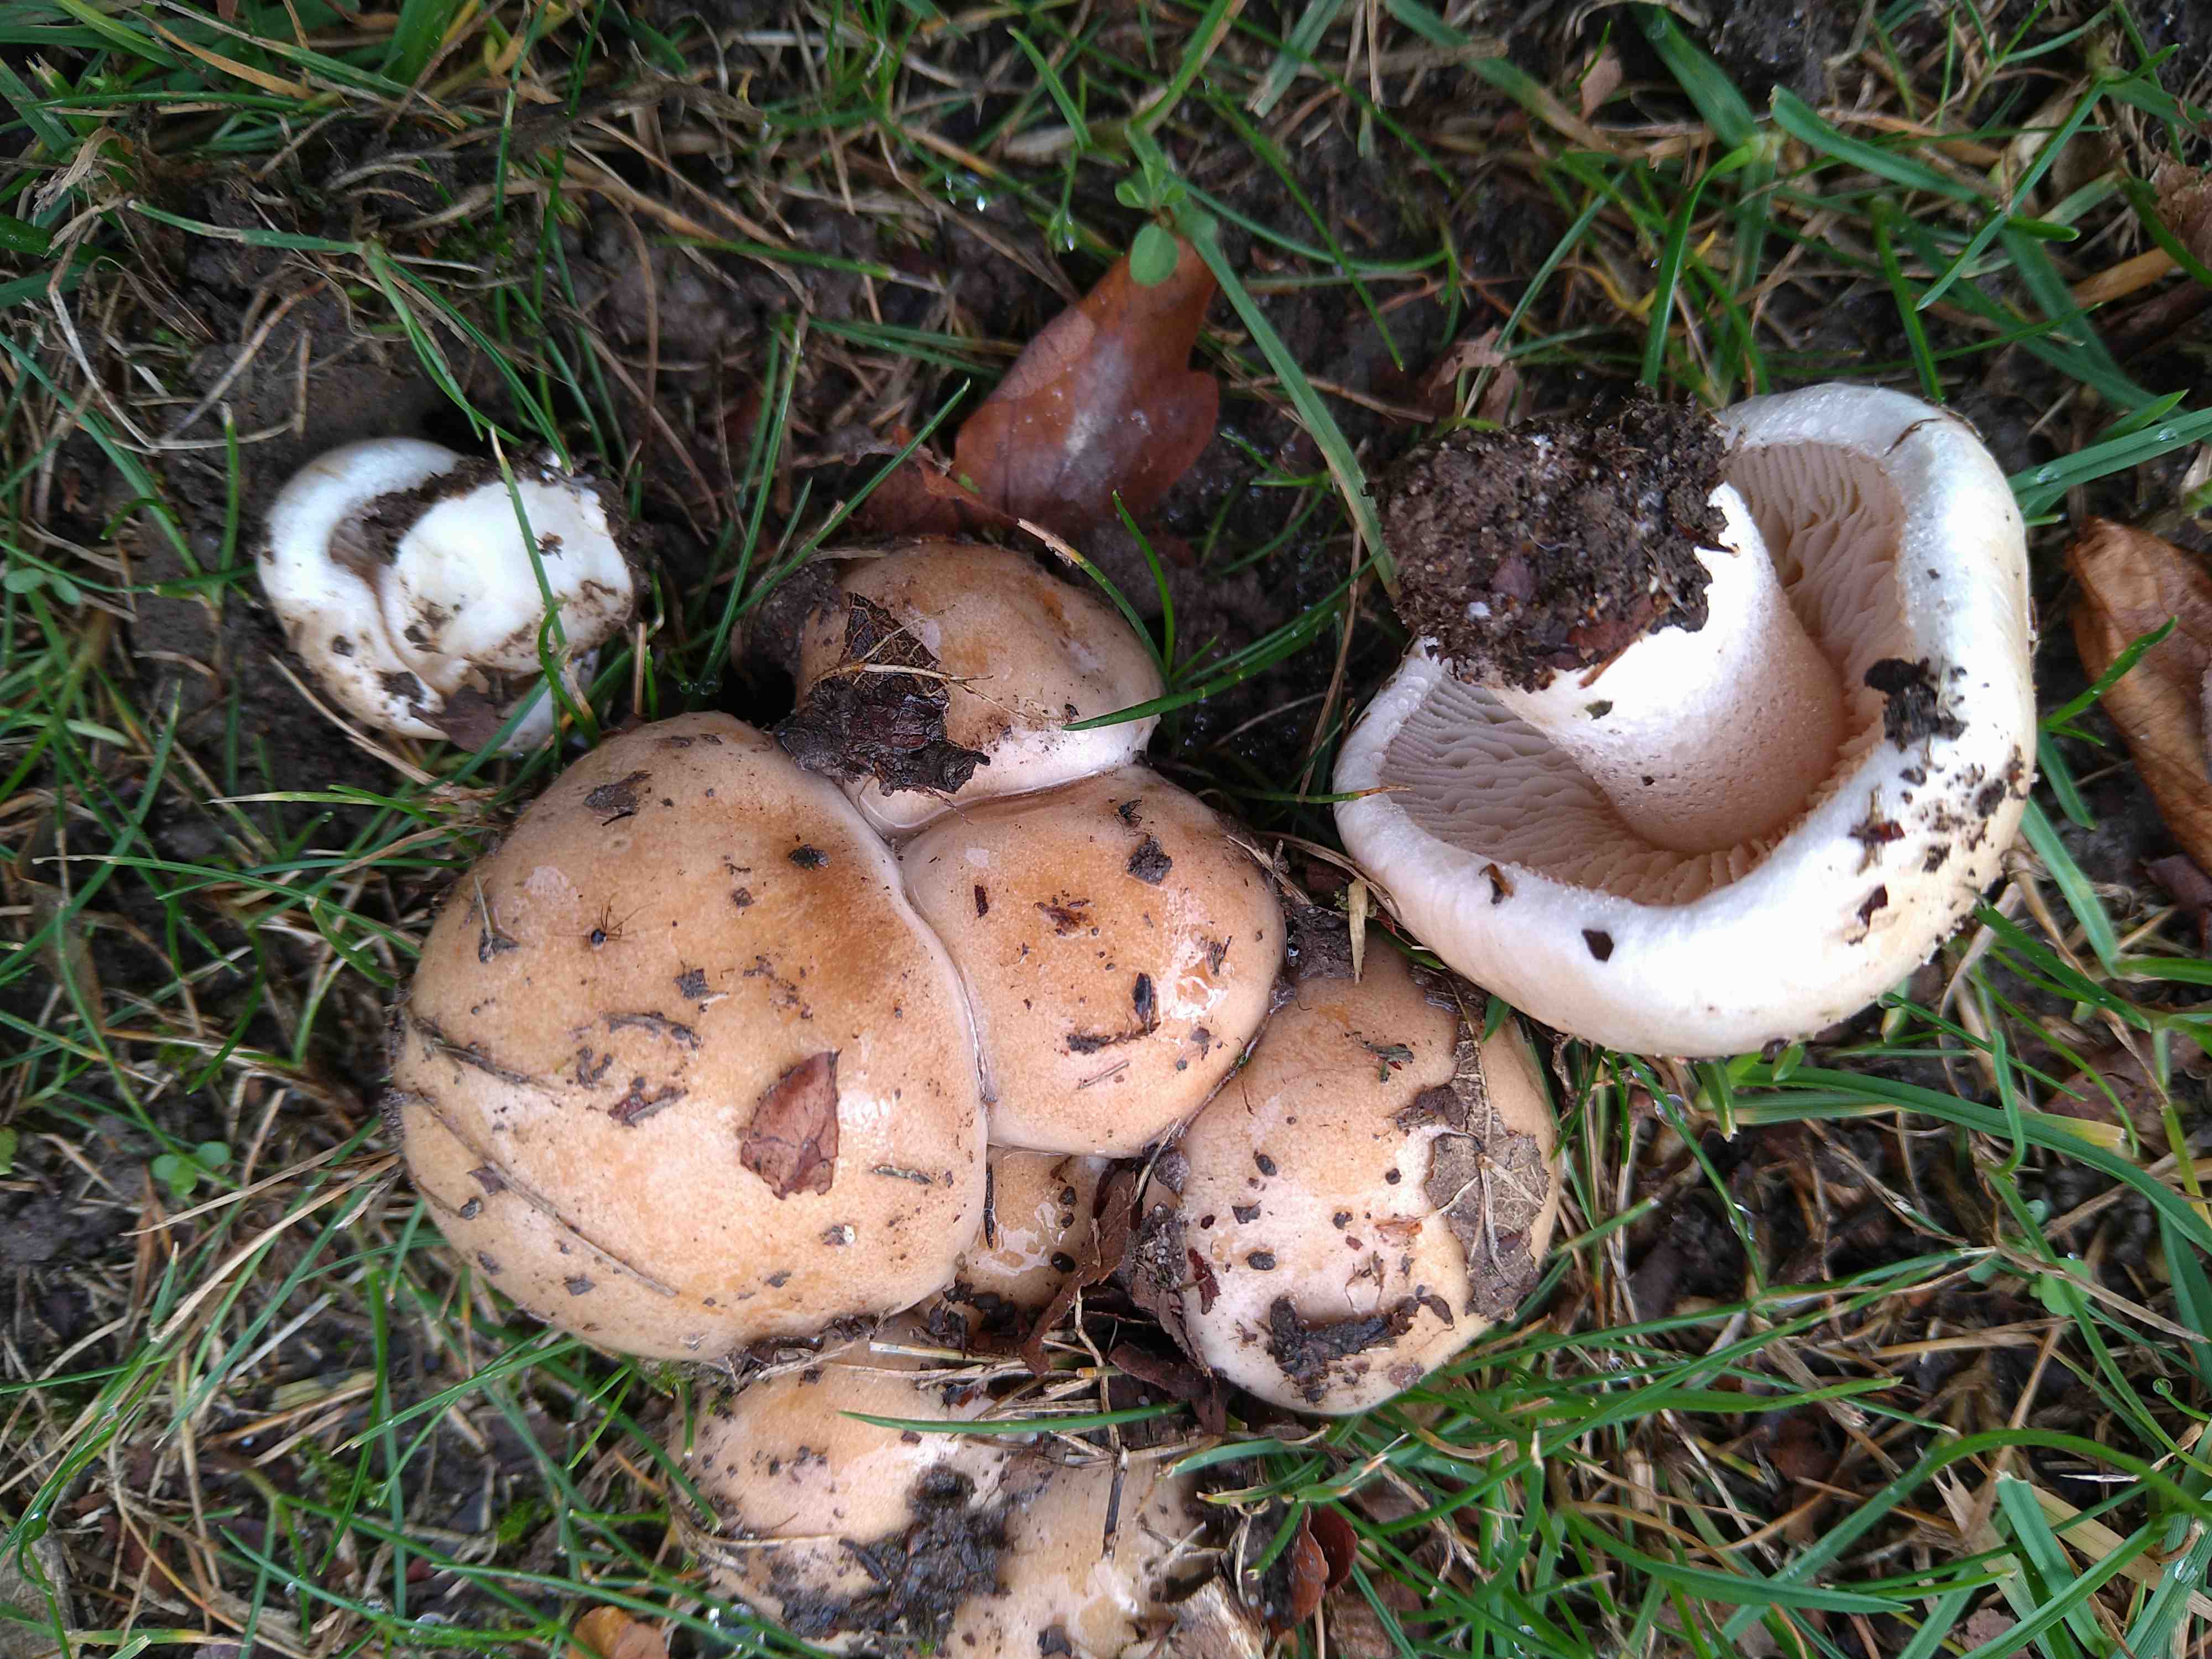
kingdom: Fungi
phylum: Basidiomycota
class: Agaricomycetes
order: Agaricales
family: Hymenogastraceae
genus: Hebeloma
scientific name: Hebeloma
